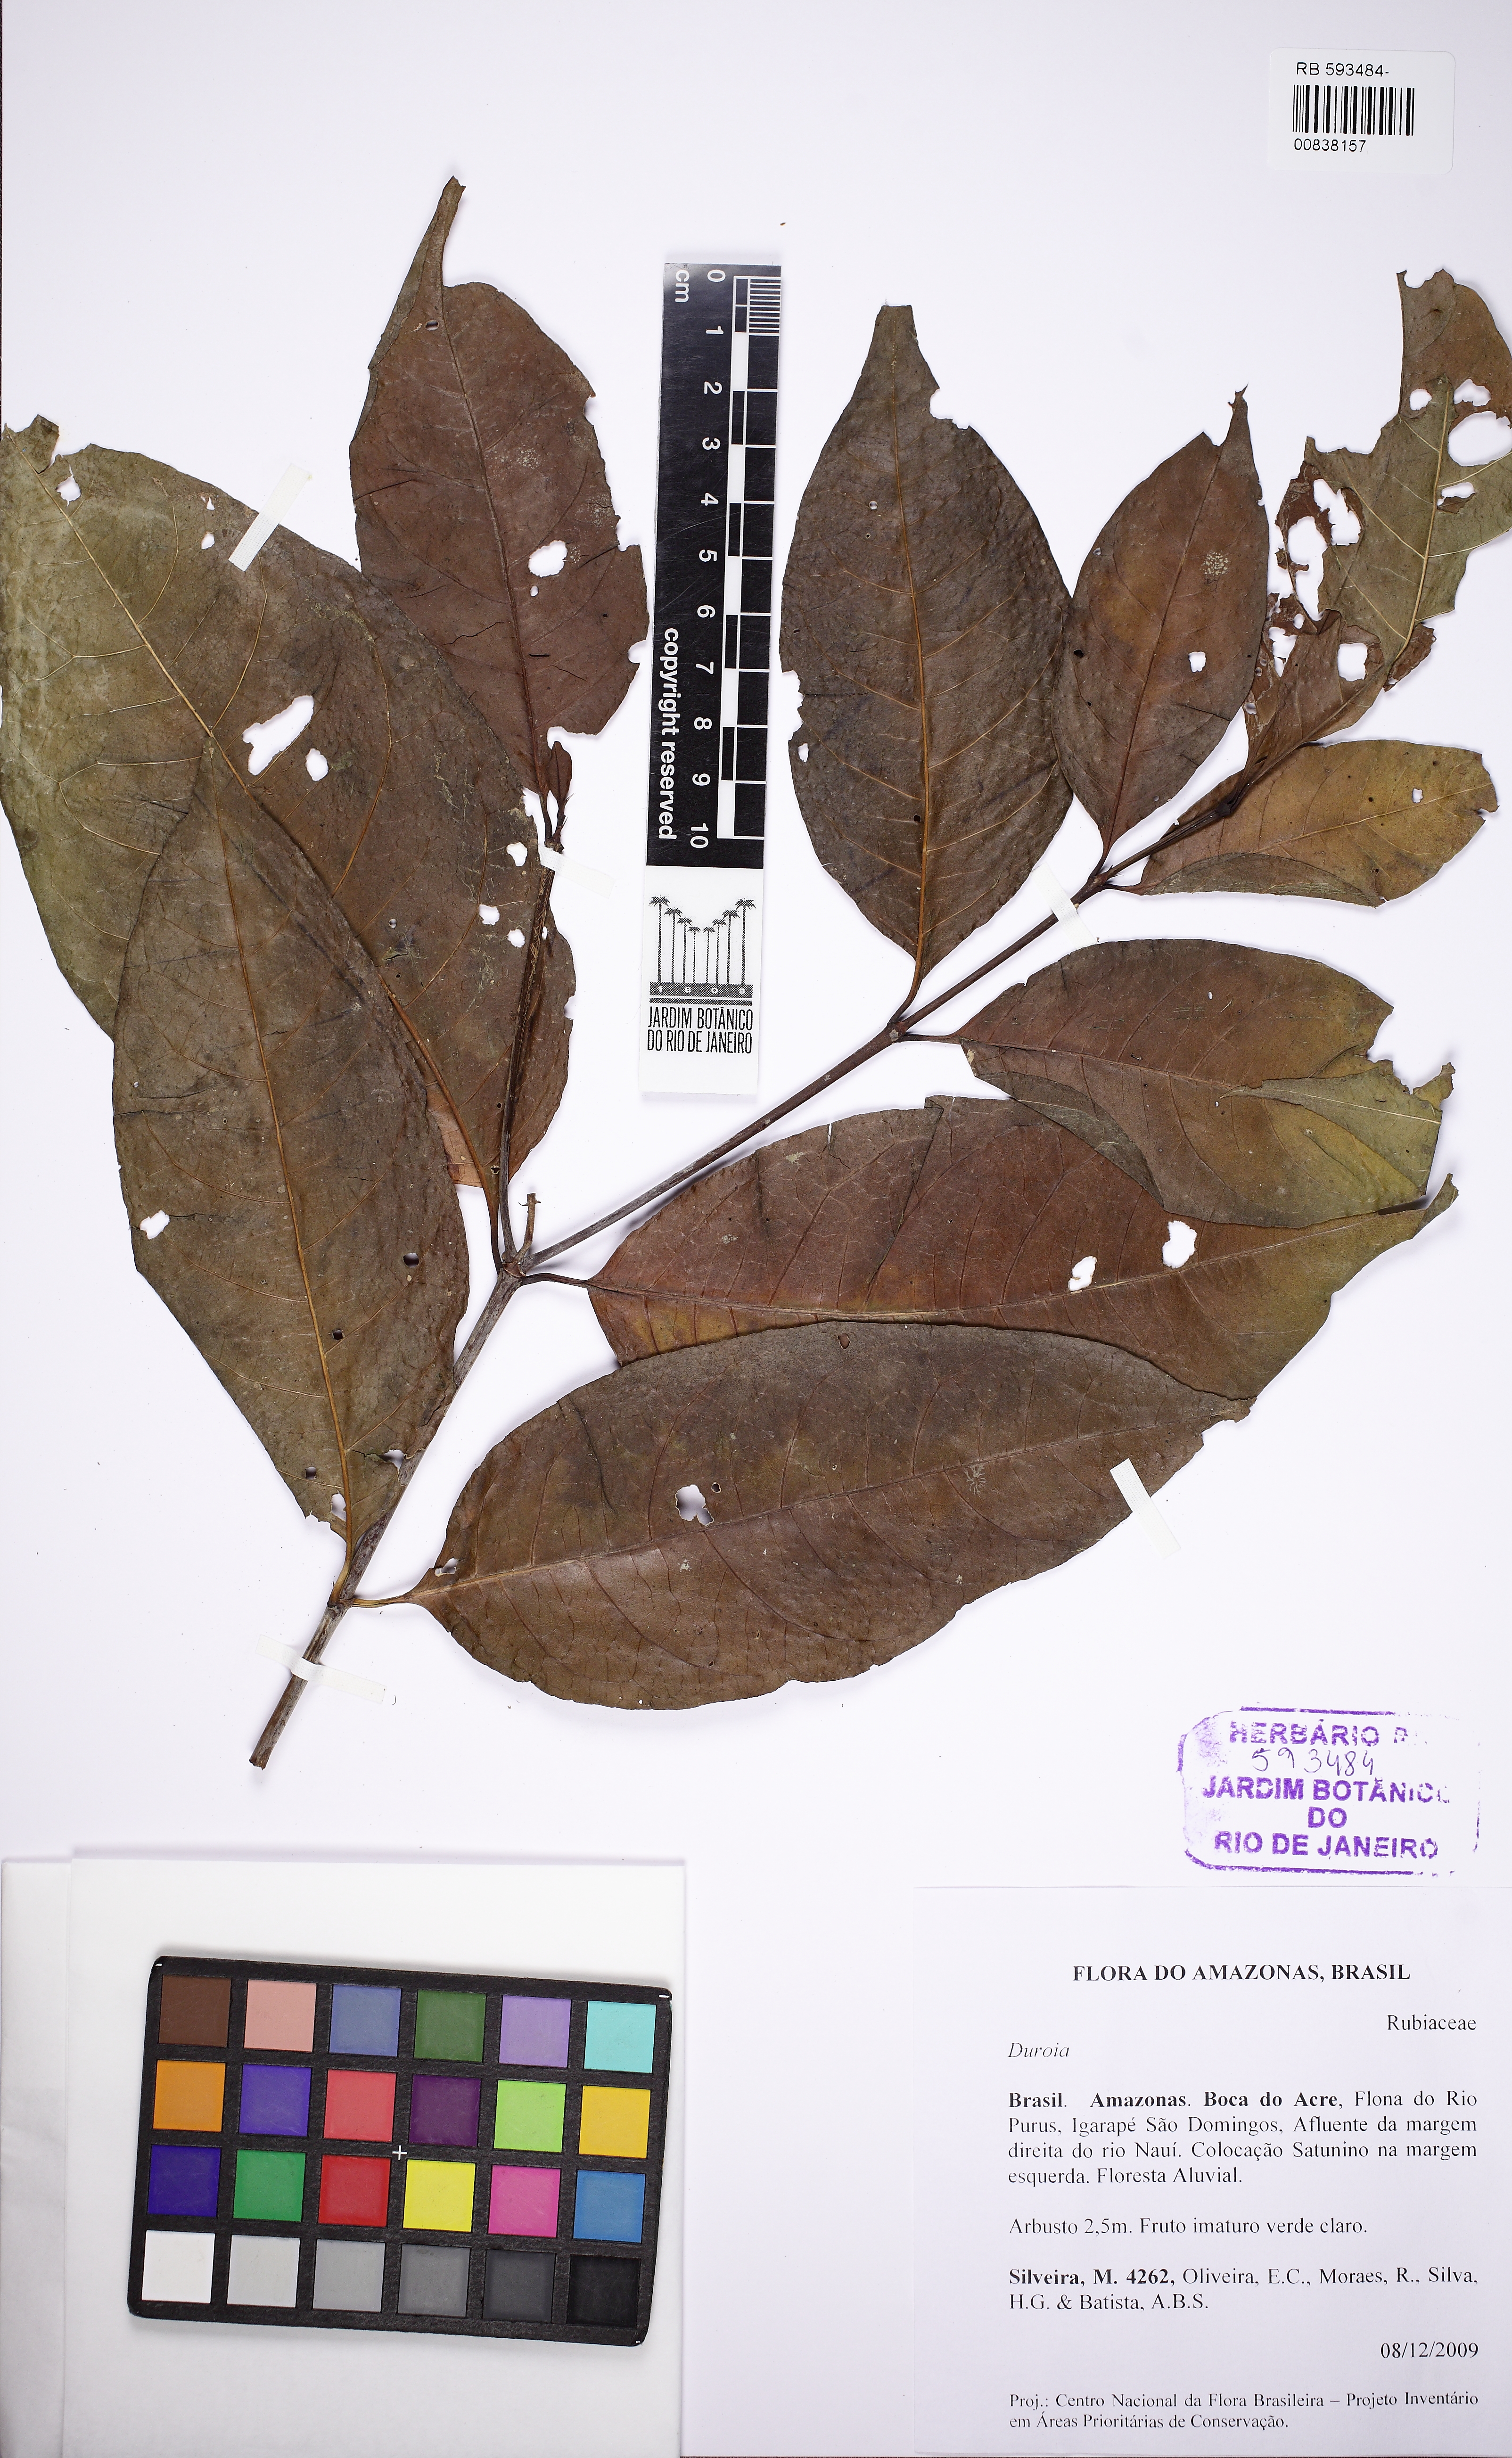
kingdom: Plantae
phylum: Tracheophyta
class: Magnoliopsida
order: Gentianales
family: Rubiaceae
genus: Duroia
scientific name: Duroia
